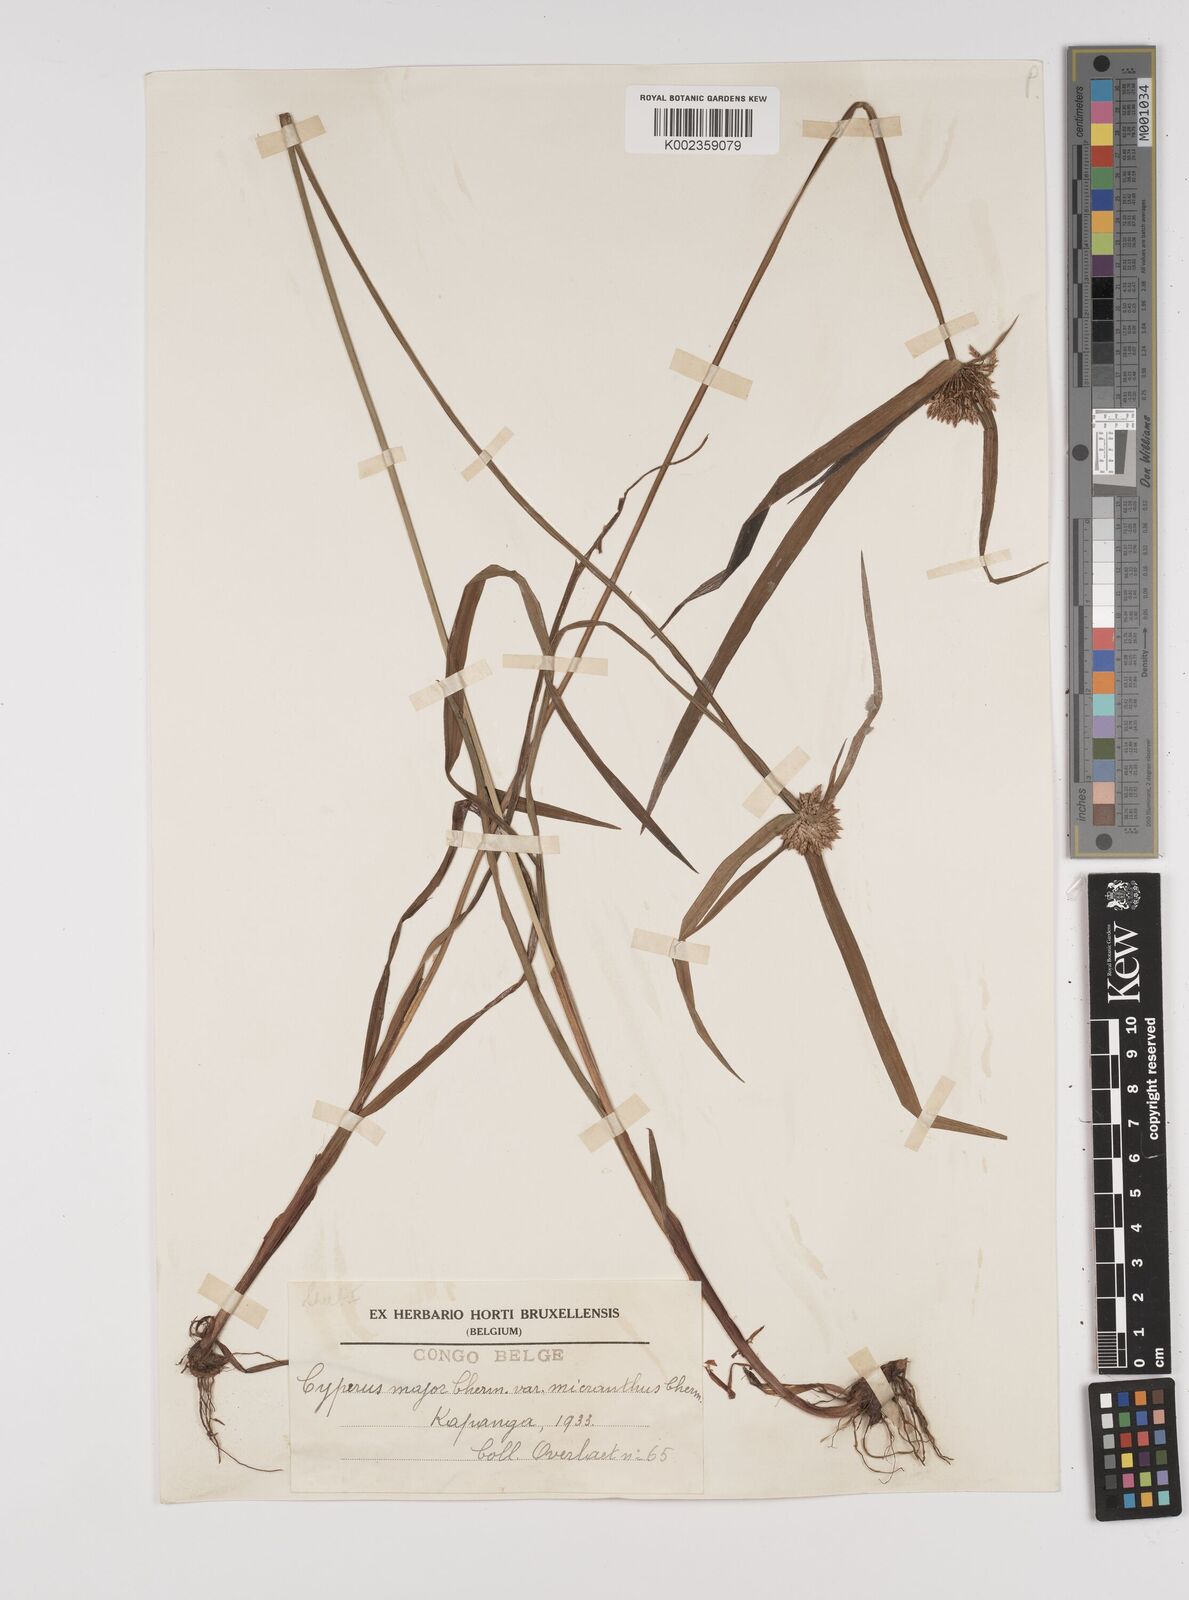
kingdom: Plantae
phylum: Tracheophyta
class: Liliopsida
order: Poales
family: Cyperaceae
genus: Cyperus
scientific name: Cyperus mapanioides
